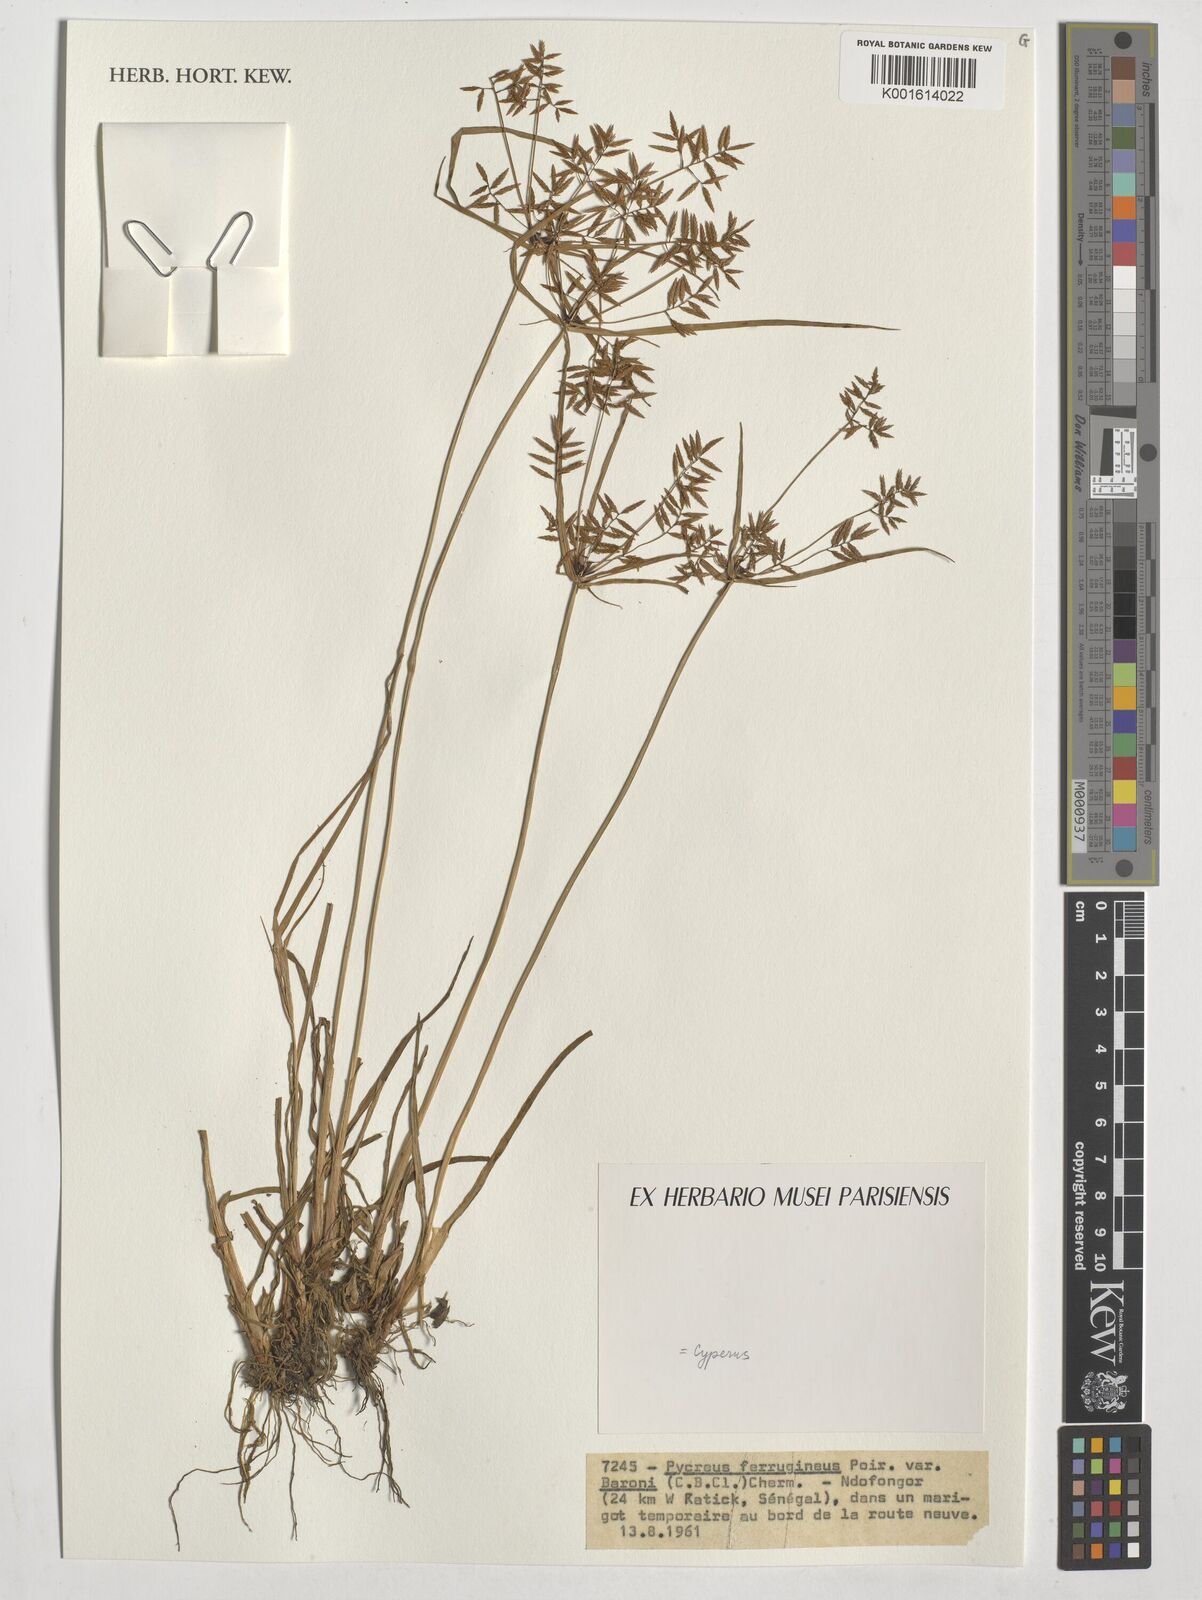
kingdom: Plantae
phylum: Tracheophyta
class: Liliopsida
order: Poales
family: Cyperaceae
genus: Cyperus
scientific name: Cyperus intactus
